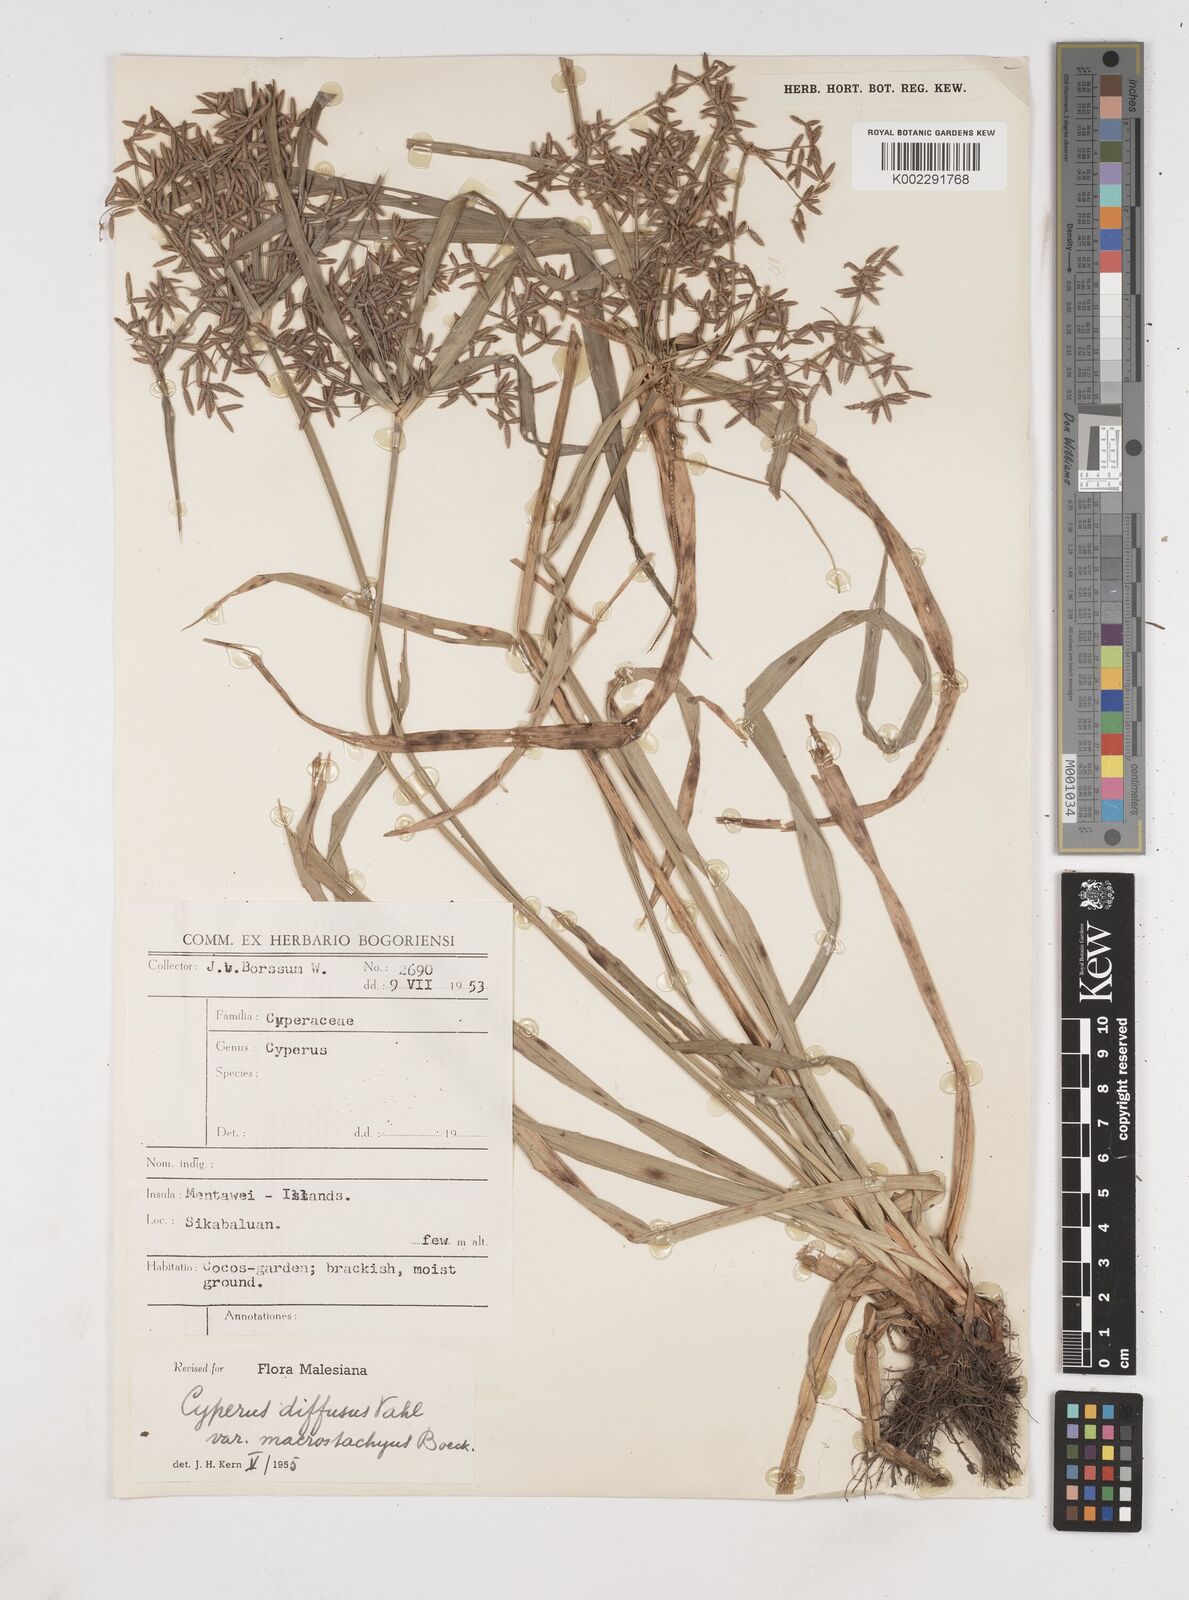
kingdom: Plantae
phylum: Tracheophyta
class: Liliopsida
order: Poales
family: Cyperaceae
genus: Cyperus
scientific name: Cyperus diffusus
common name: Dwarf umbrella grass
